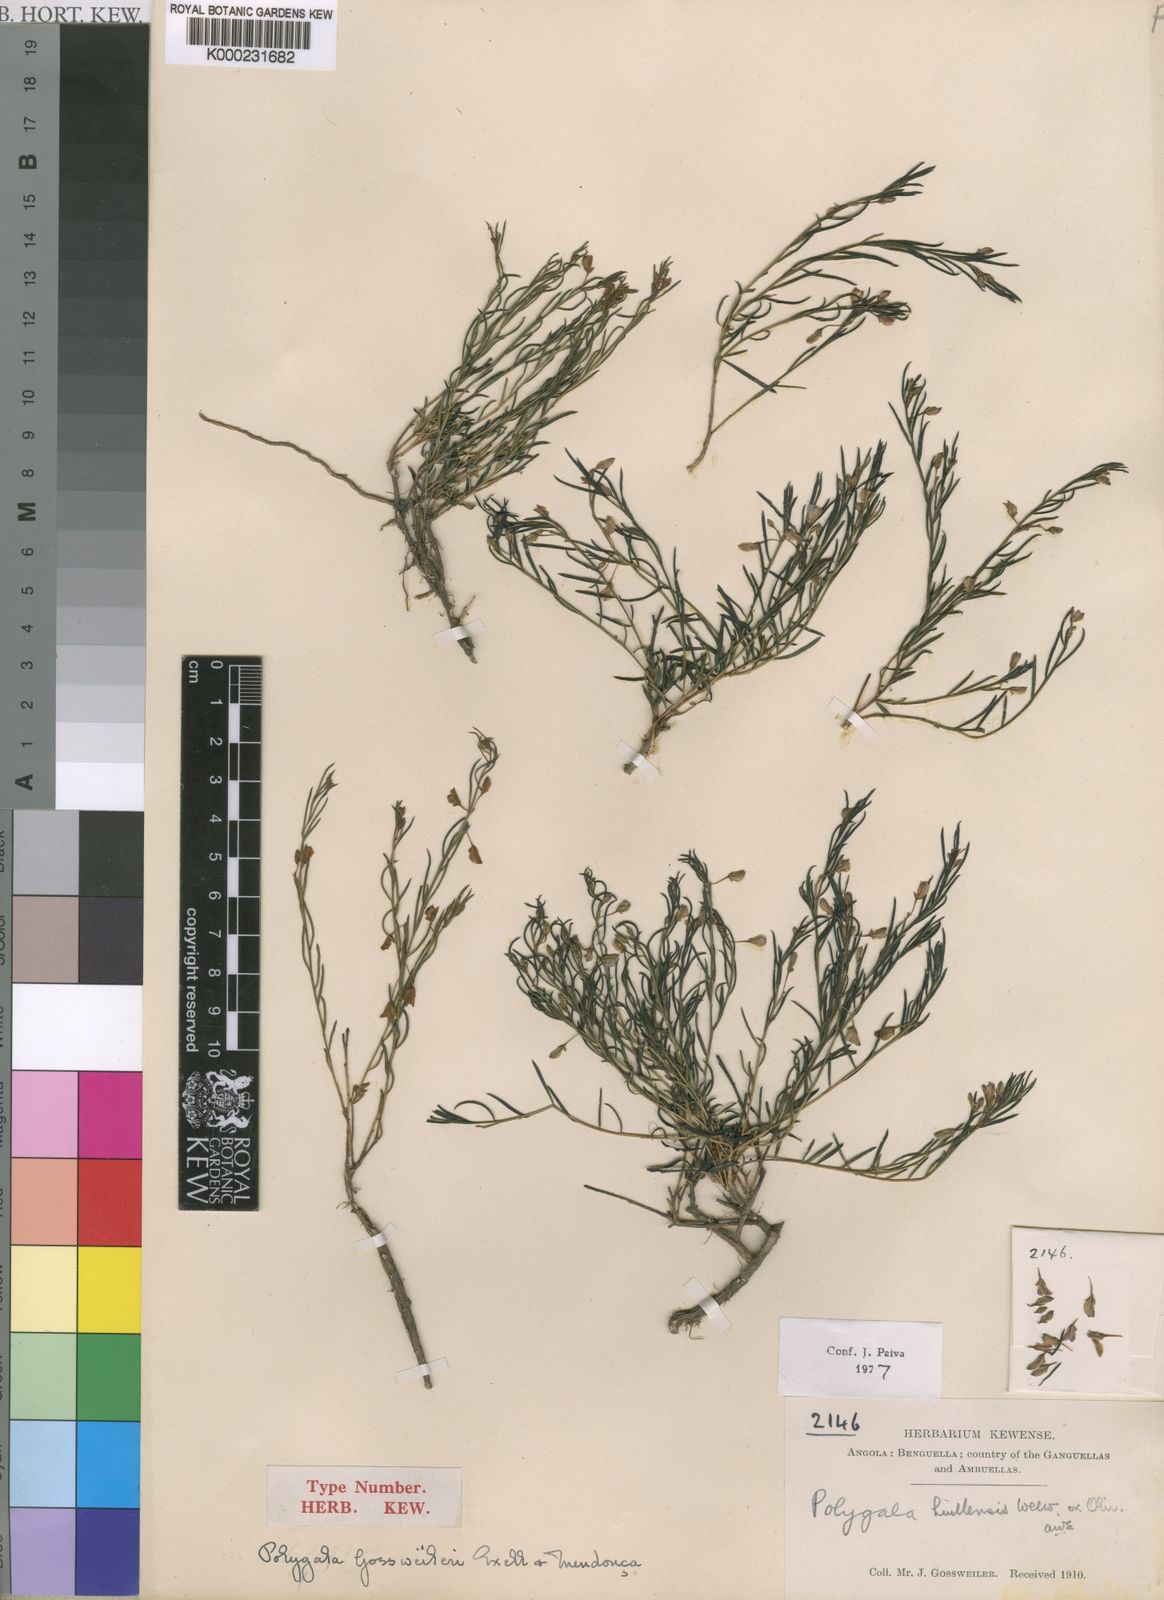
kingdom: Plantae
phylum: Tracheophyta
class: Magnoliopsida
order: Fabales
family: Polygalaceae
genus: Polygala
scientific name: Polygala huillensis
